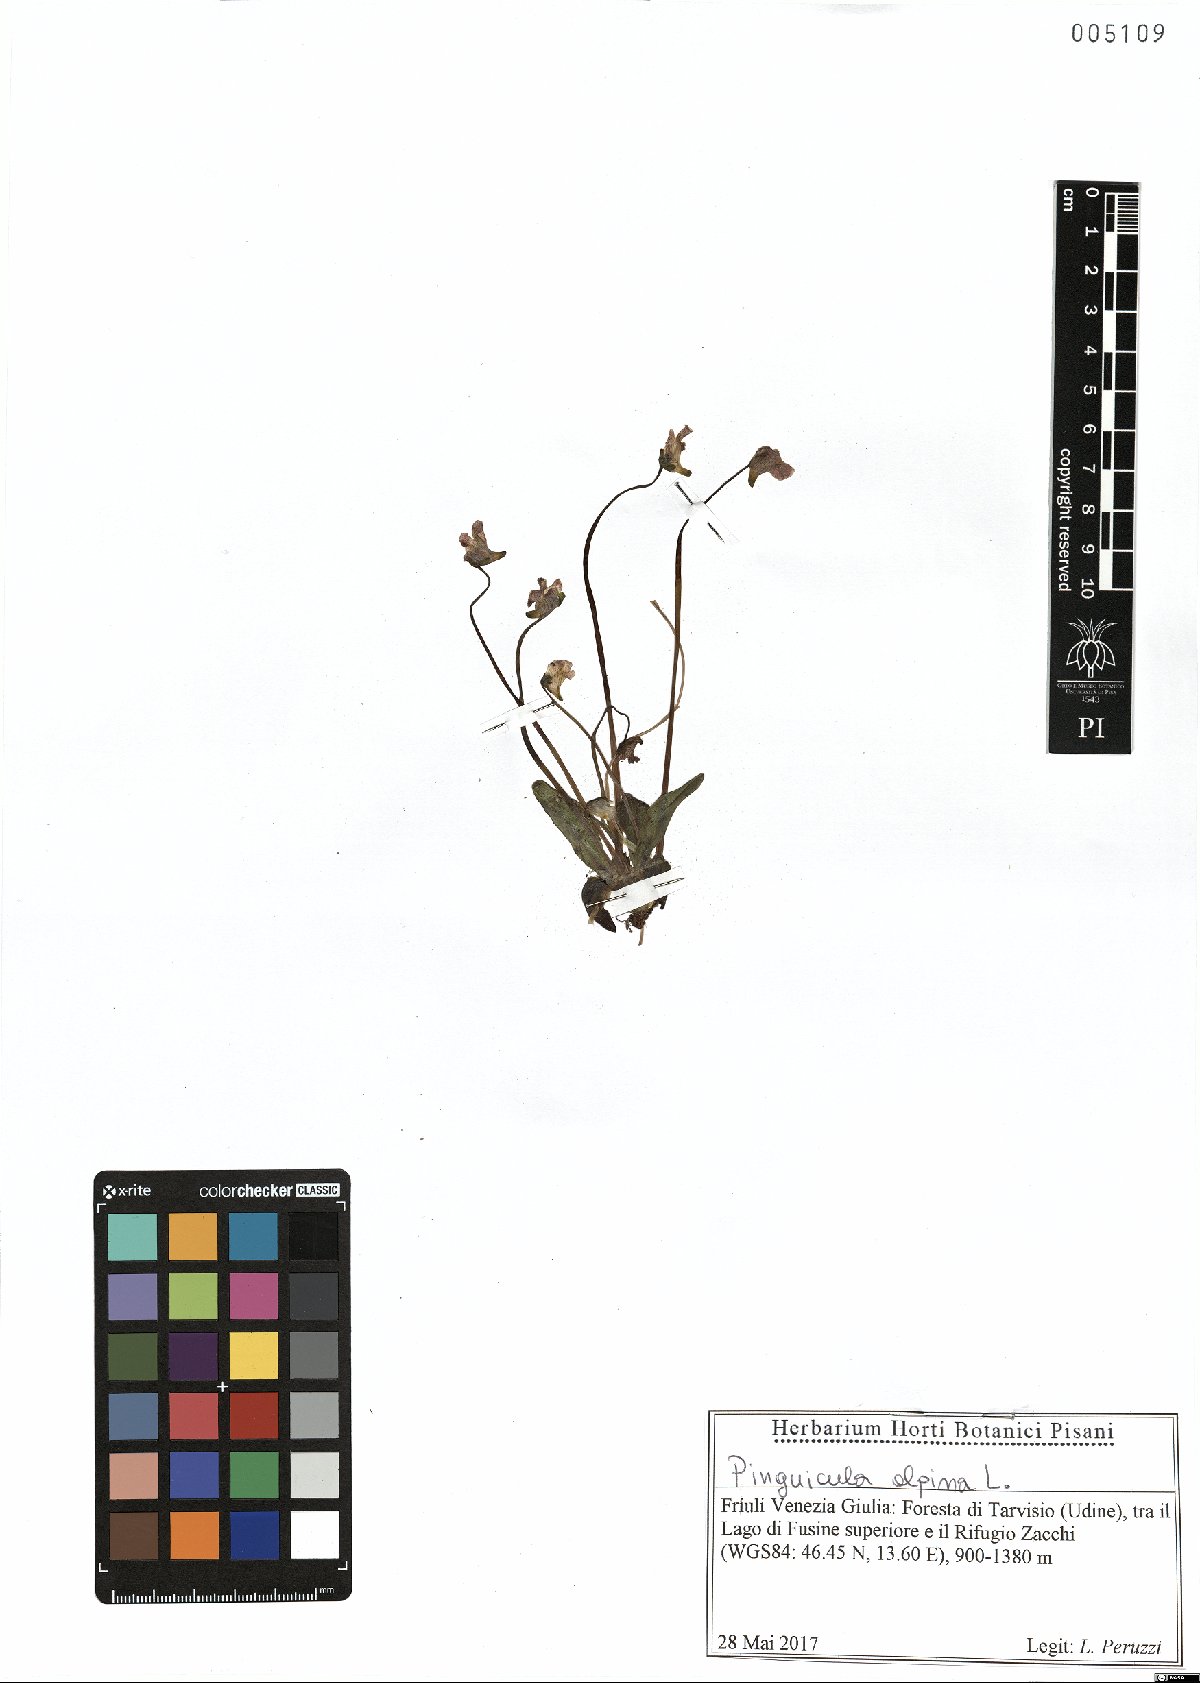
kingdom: Plantae
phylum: Tracheophyta
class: Magnoliopsida
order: Lamiales
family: Lentibulariaceae
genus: Pinguicula
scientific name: Pinguicula alpina
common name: Alpine butterwort
